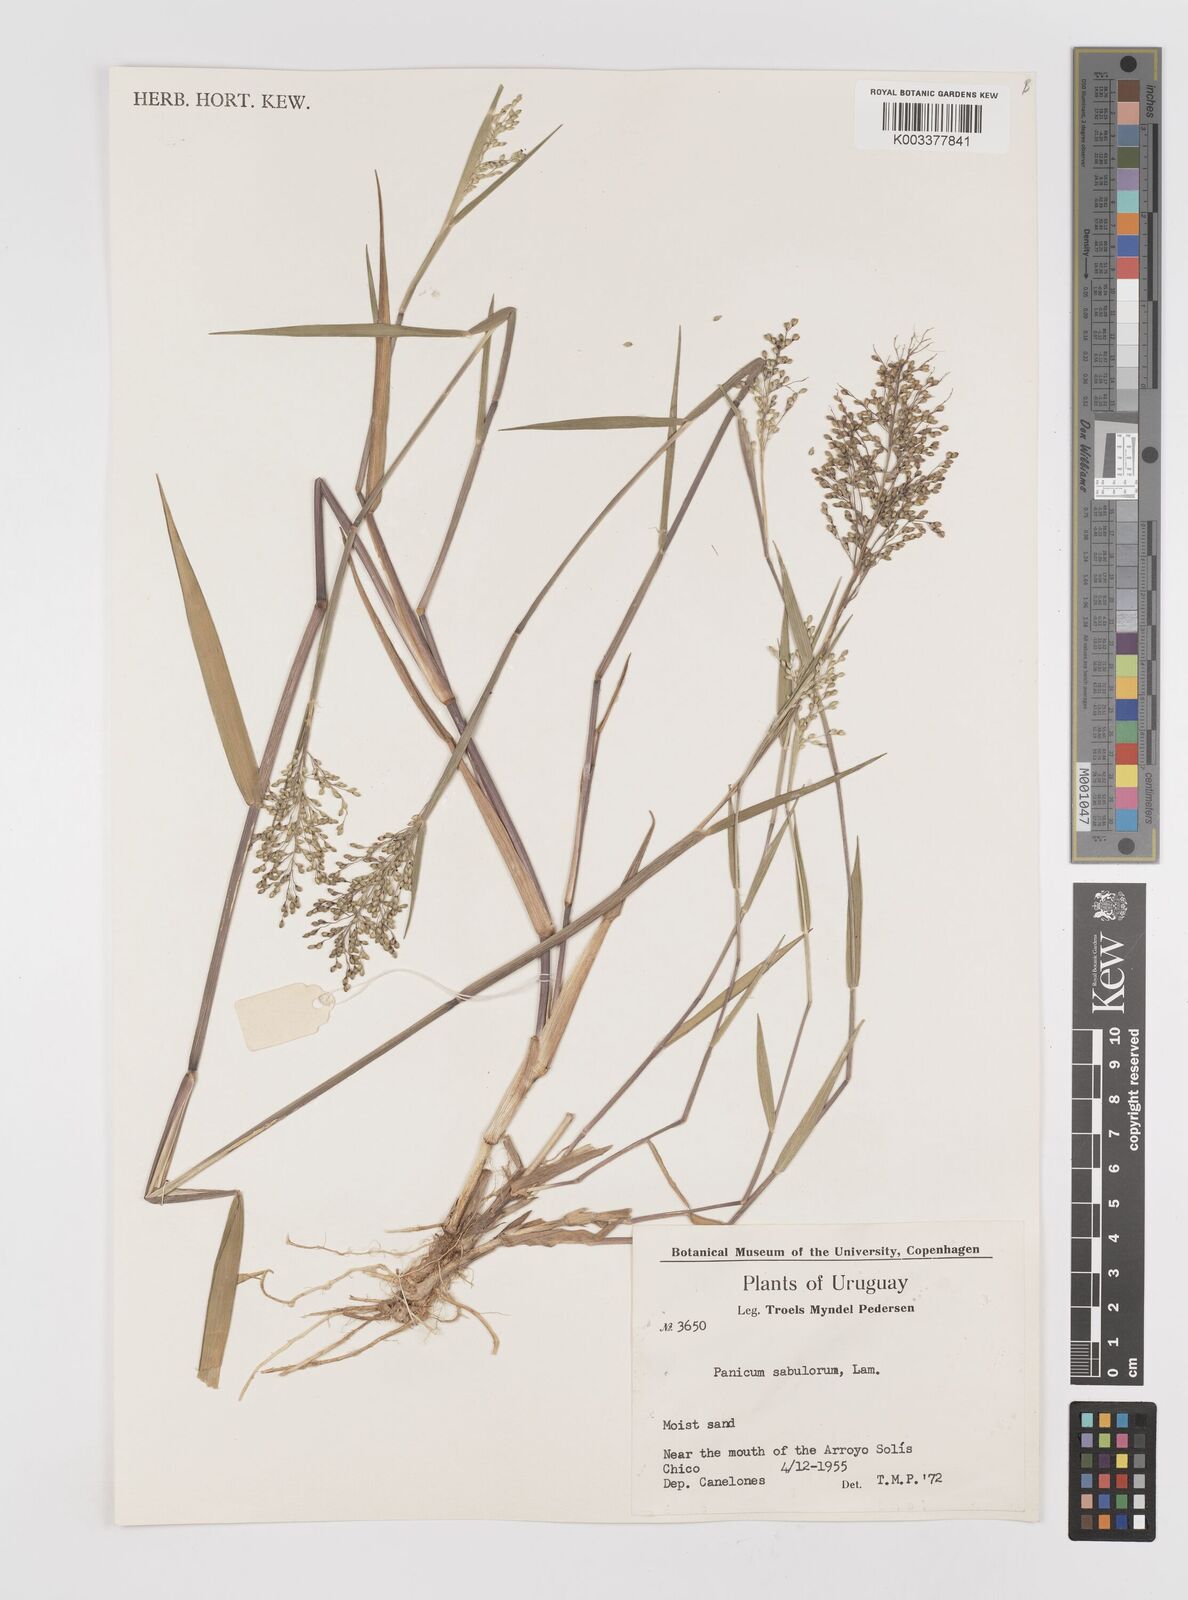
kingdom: Plantae
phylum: Tracheophyta
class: Liliopsida
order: Poales
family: Poaceae
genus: Dichanthelium
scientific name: Dichanthelium sabulorum
